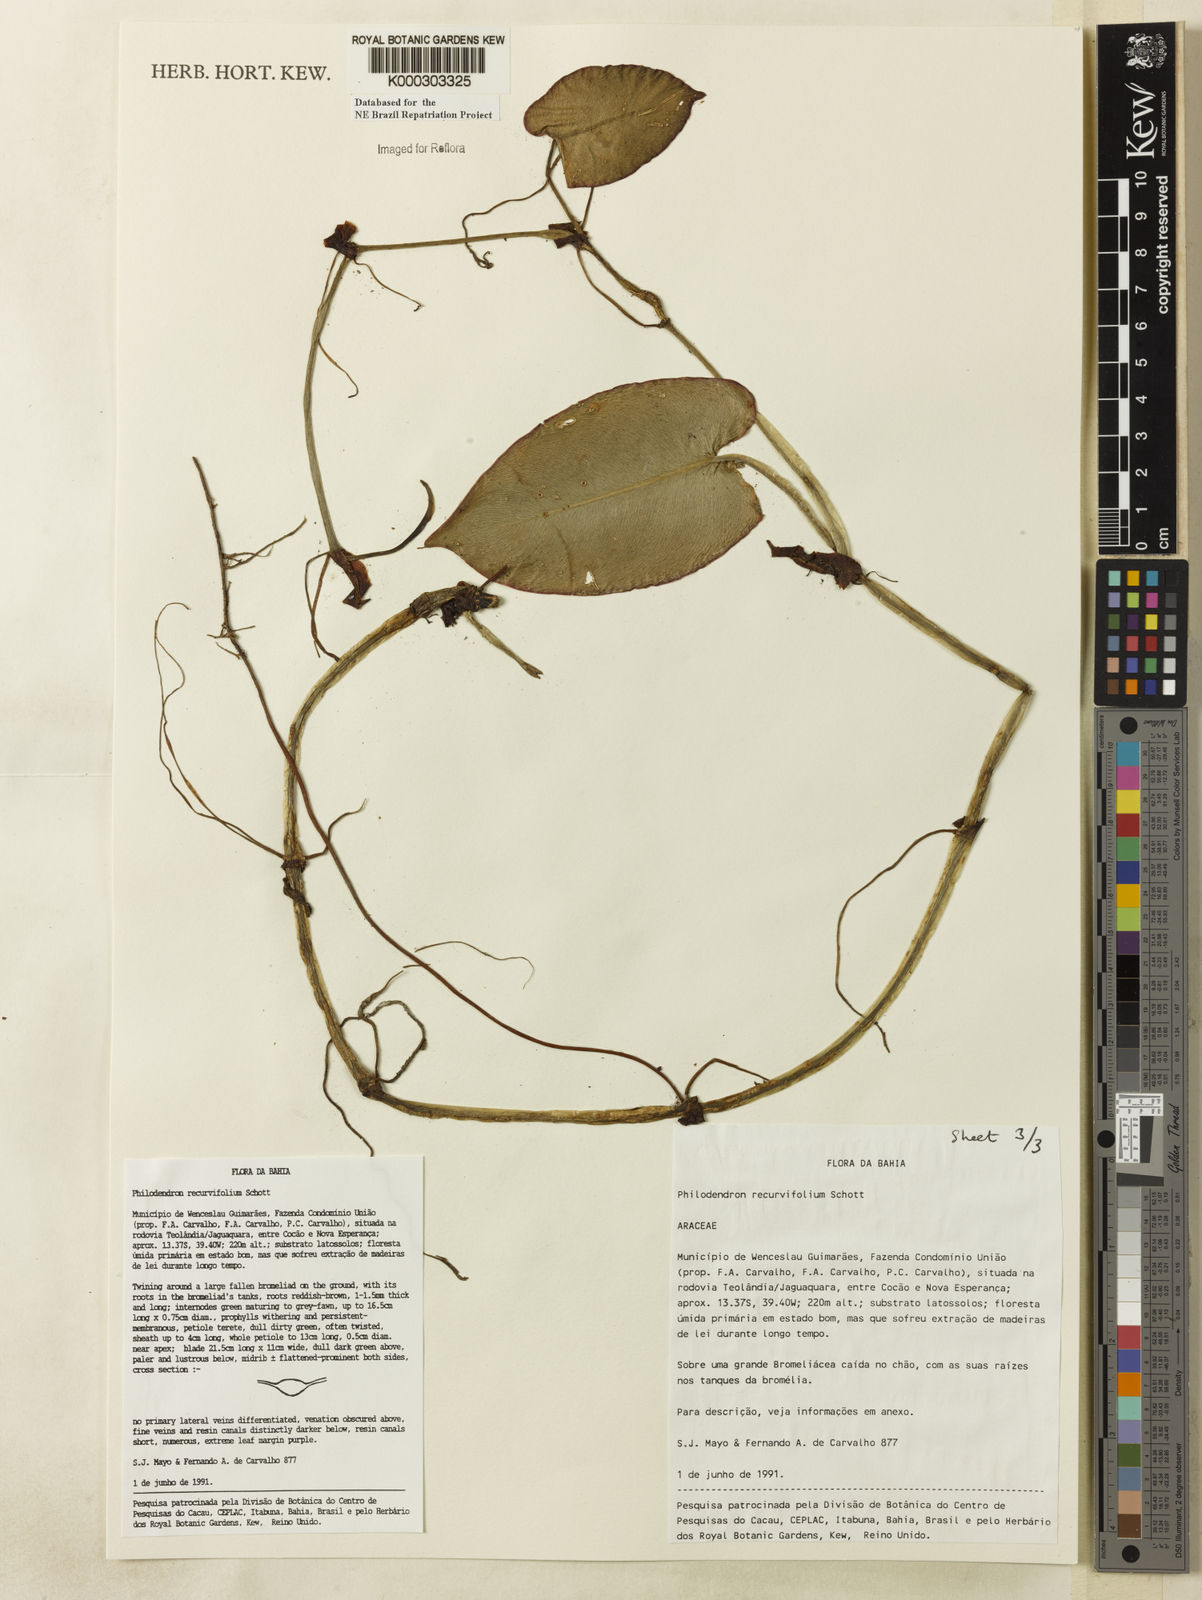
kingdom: Plantae
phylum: Tracheophyta
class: Liliopsida
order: Alismatales
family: Araceae
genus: Philodendron
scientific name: Philodendron recurvifolium
